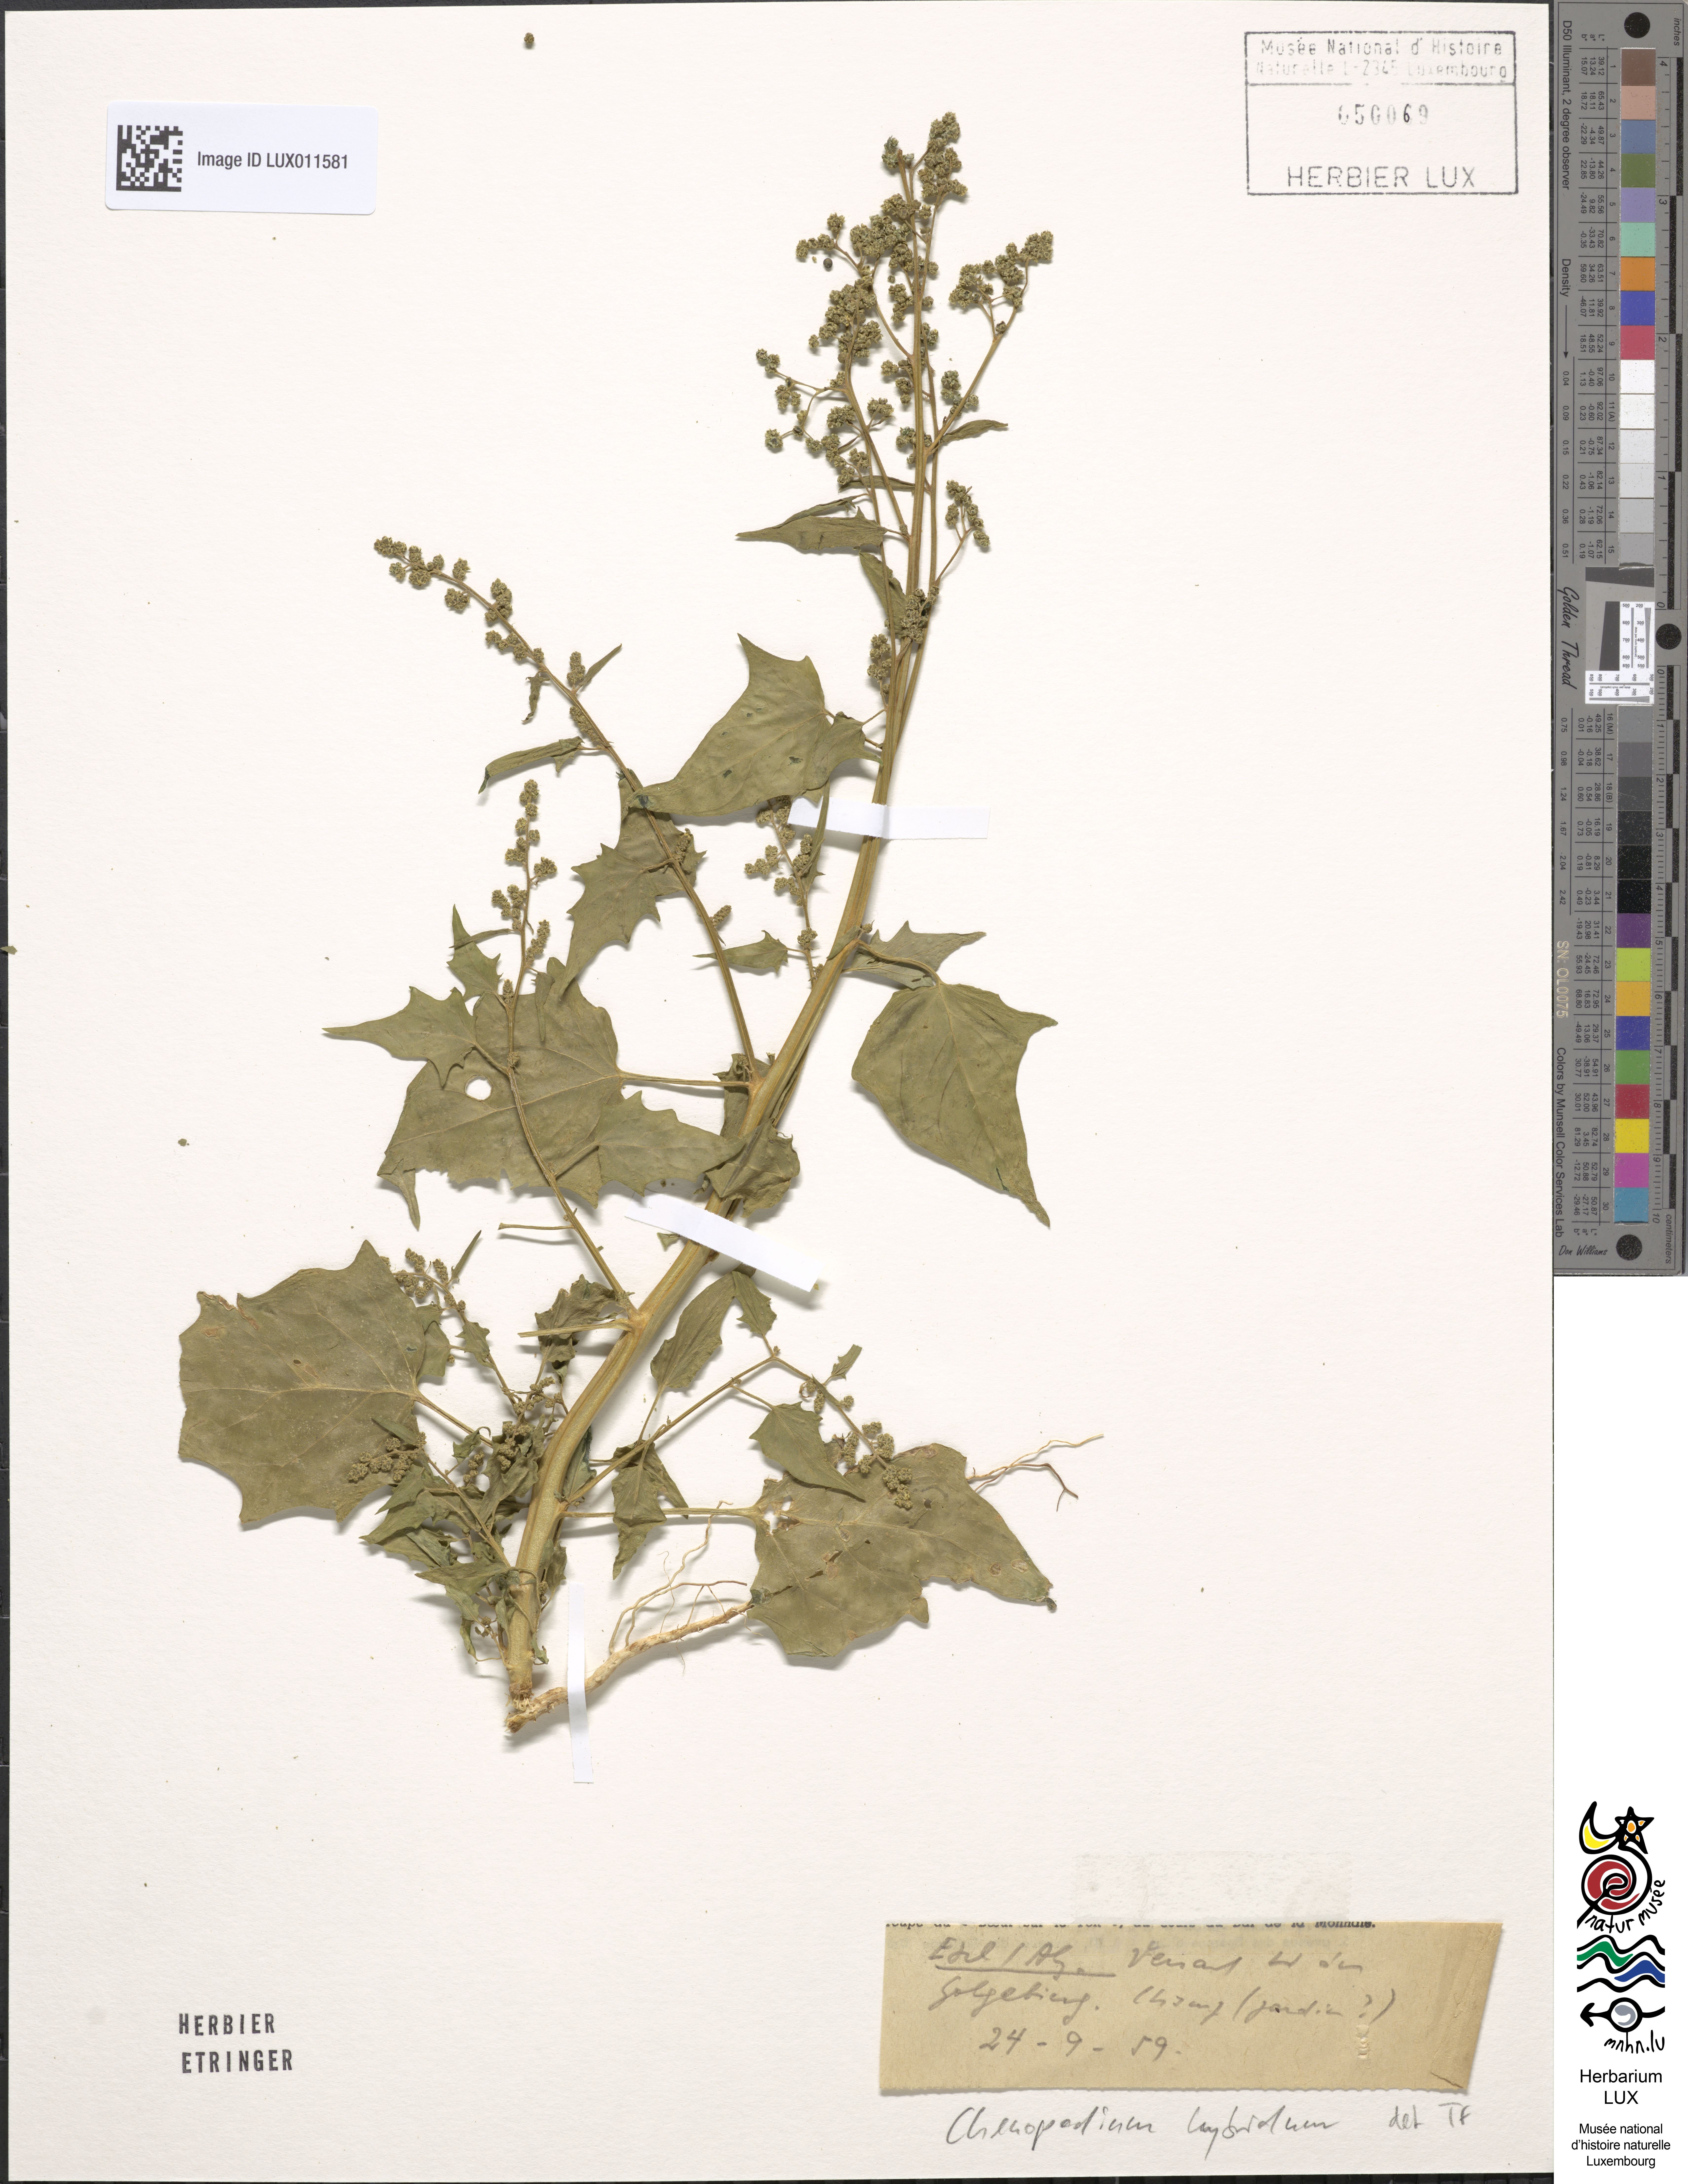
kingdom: Plantae
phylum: Tracheophyta
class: Magnoliopsida
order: Caryophyllales
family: Amaranthaceae
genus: Chenopodiastrum
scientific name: Chenopodiastrum hybridum
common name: Mapleleaf goosefoot
